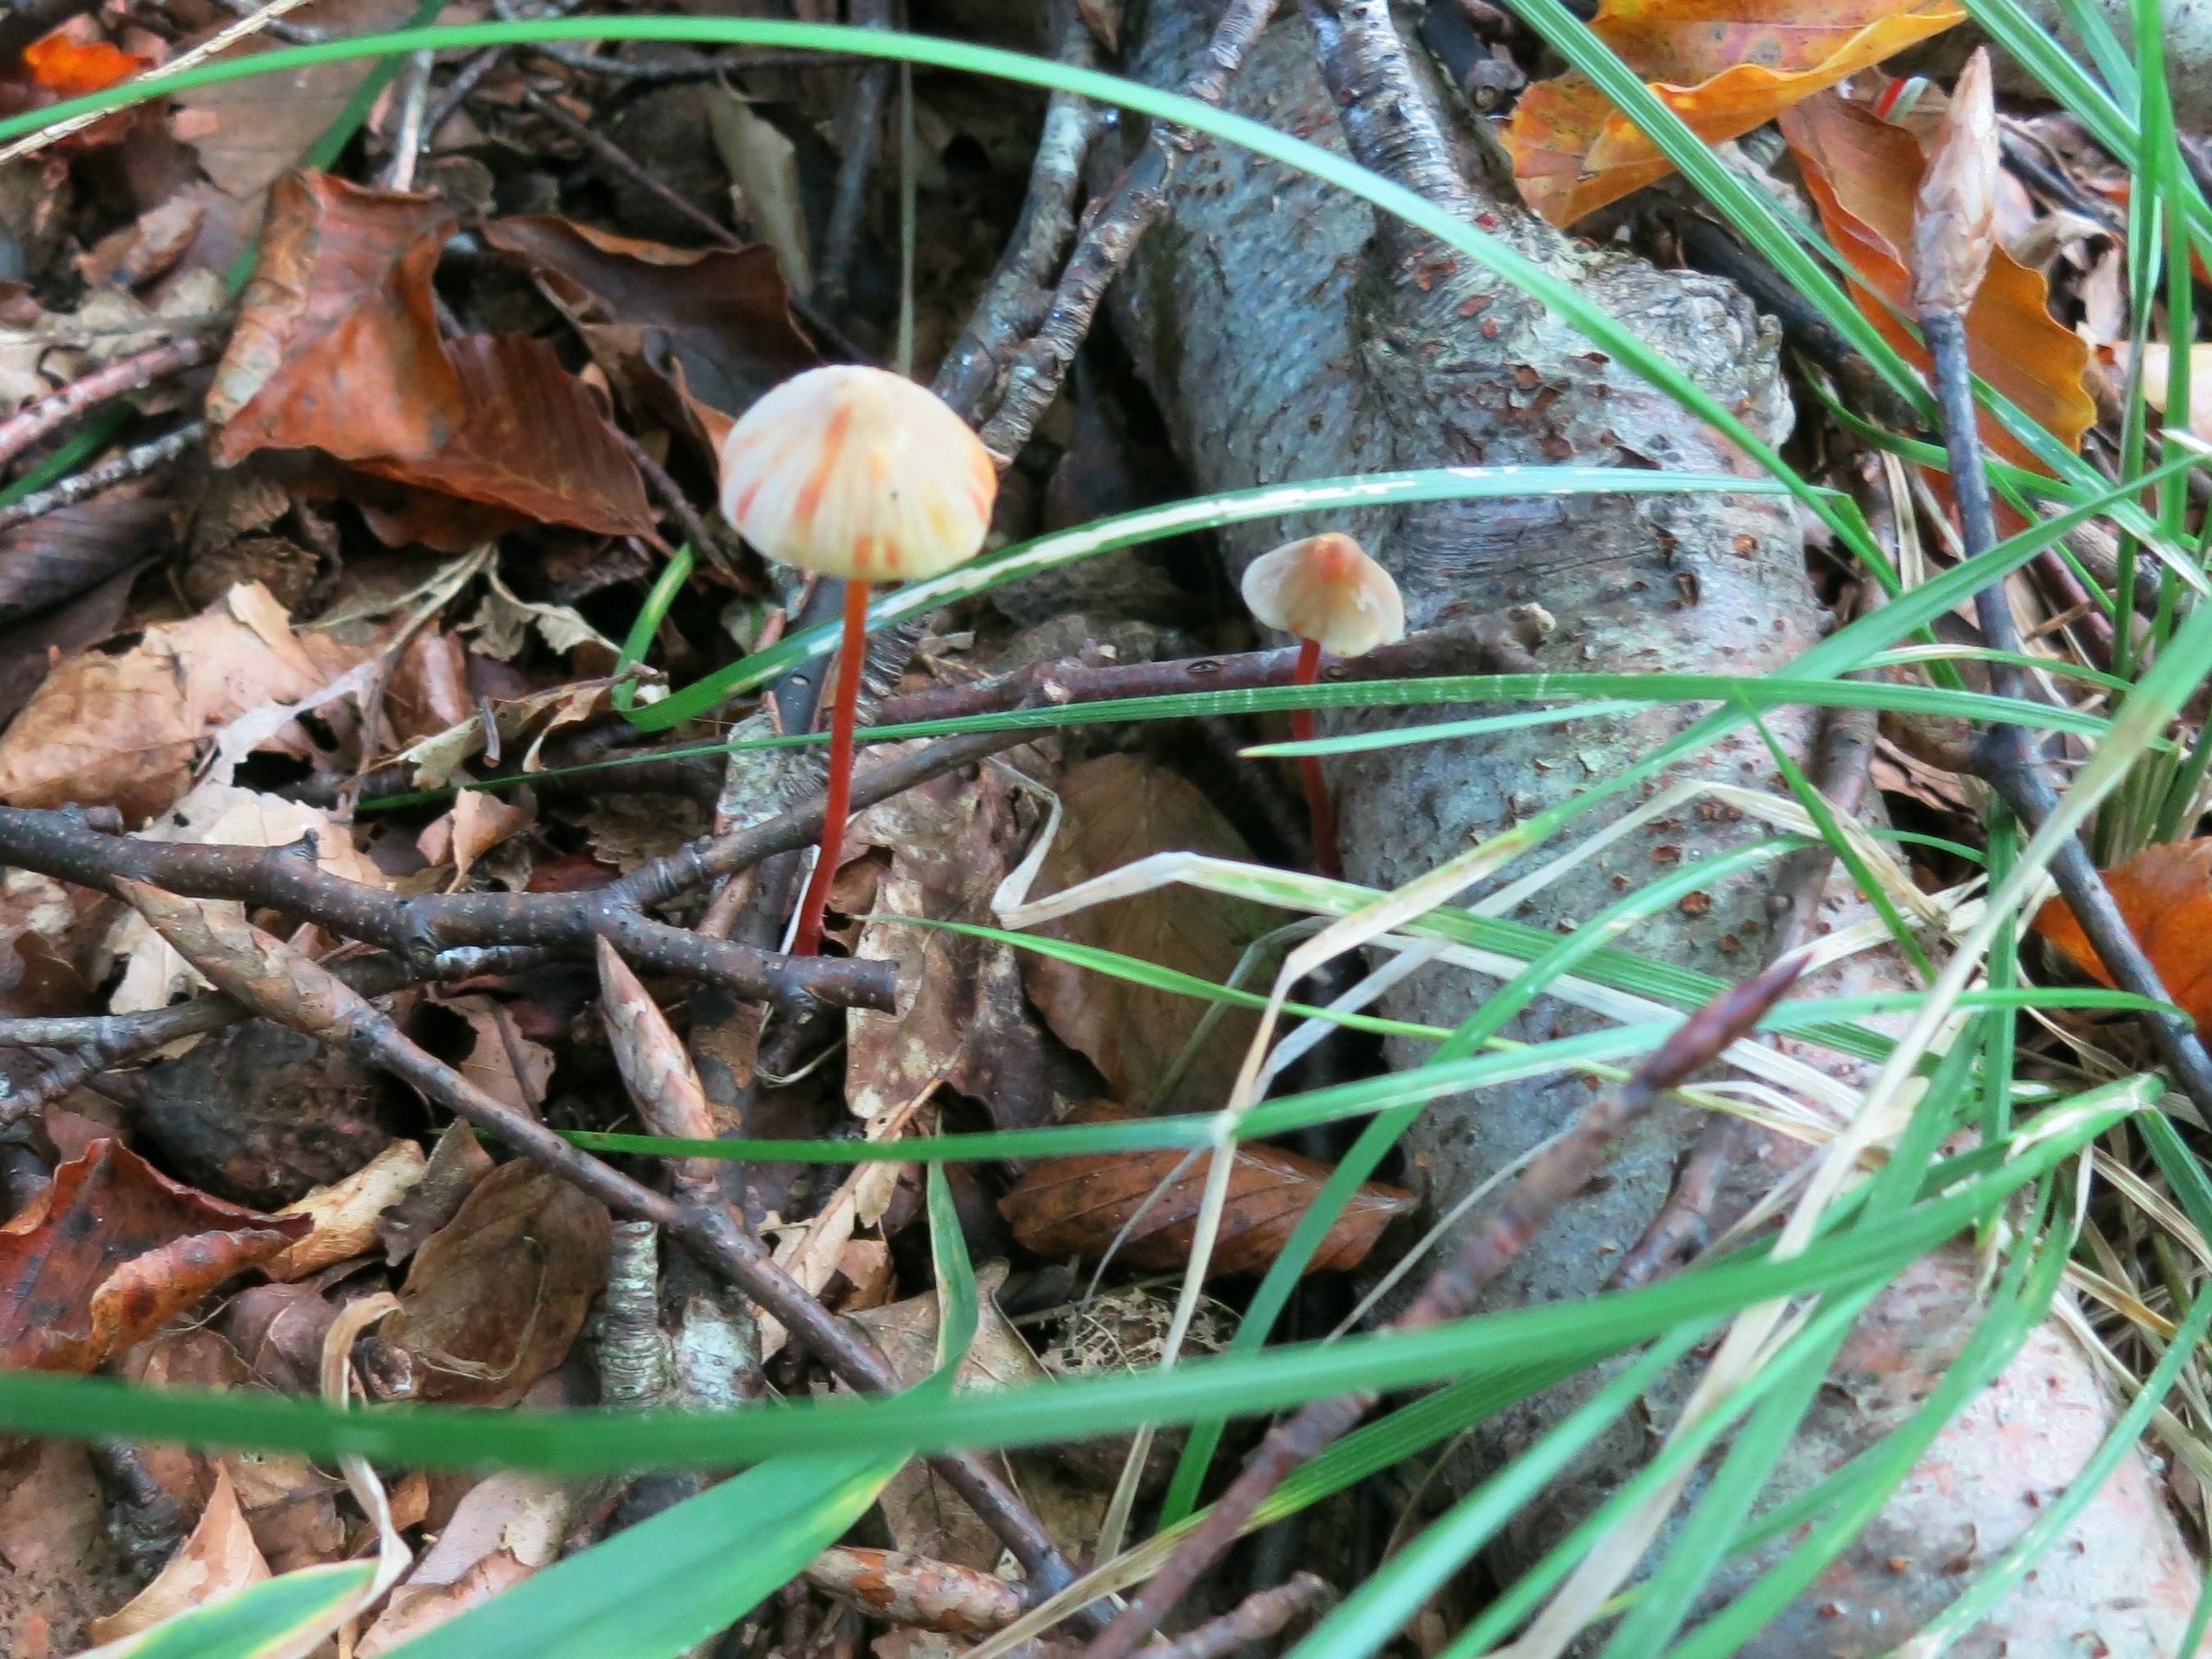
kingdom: Fungi
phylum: Basidiomycota
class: Agaricomycetes
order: Agaricales
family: Mycenaceae
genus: Mycena
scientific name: Mycena crocata
